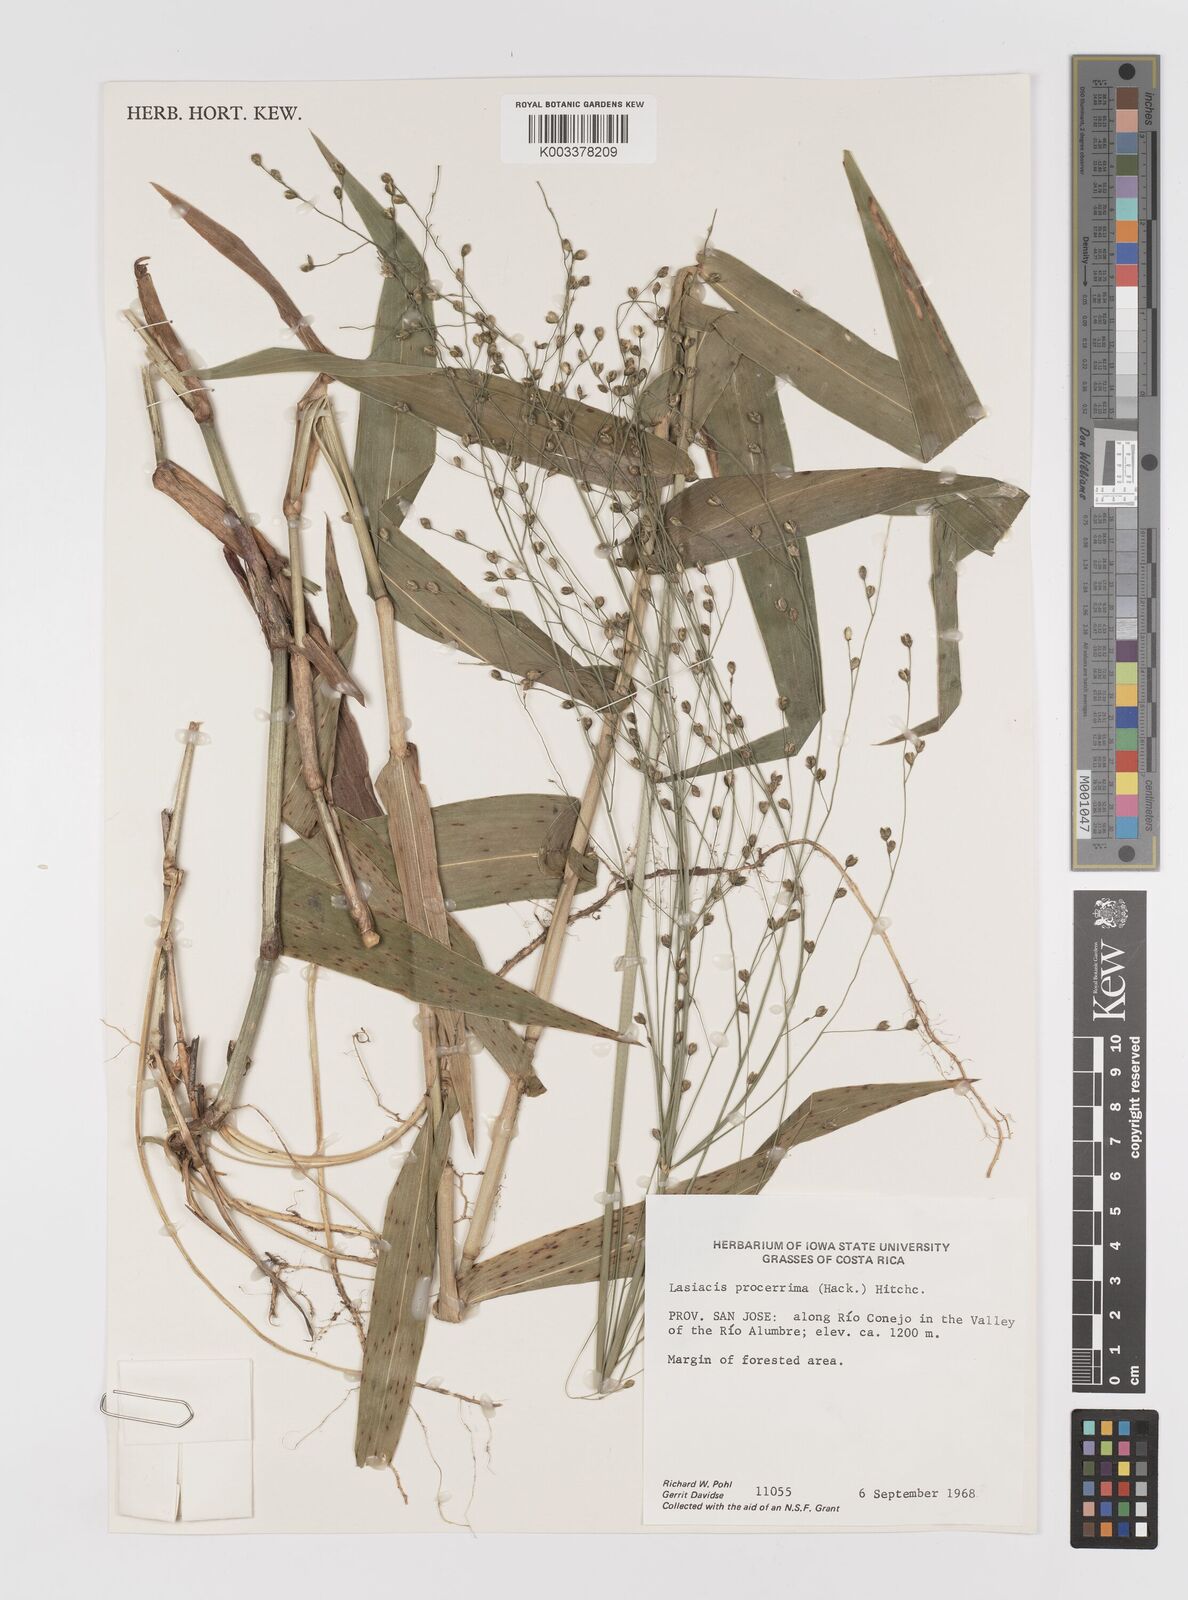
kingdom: Plantae
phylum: Tracheophyta
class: Liliopsida
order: Poales
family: Poaceae
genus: Lasiacis
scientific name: Lasiacis procerrima
